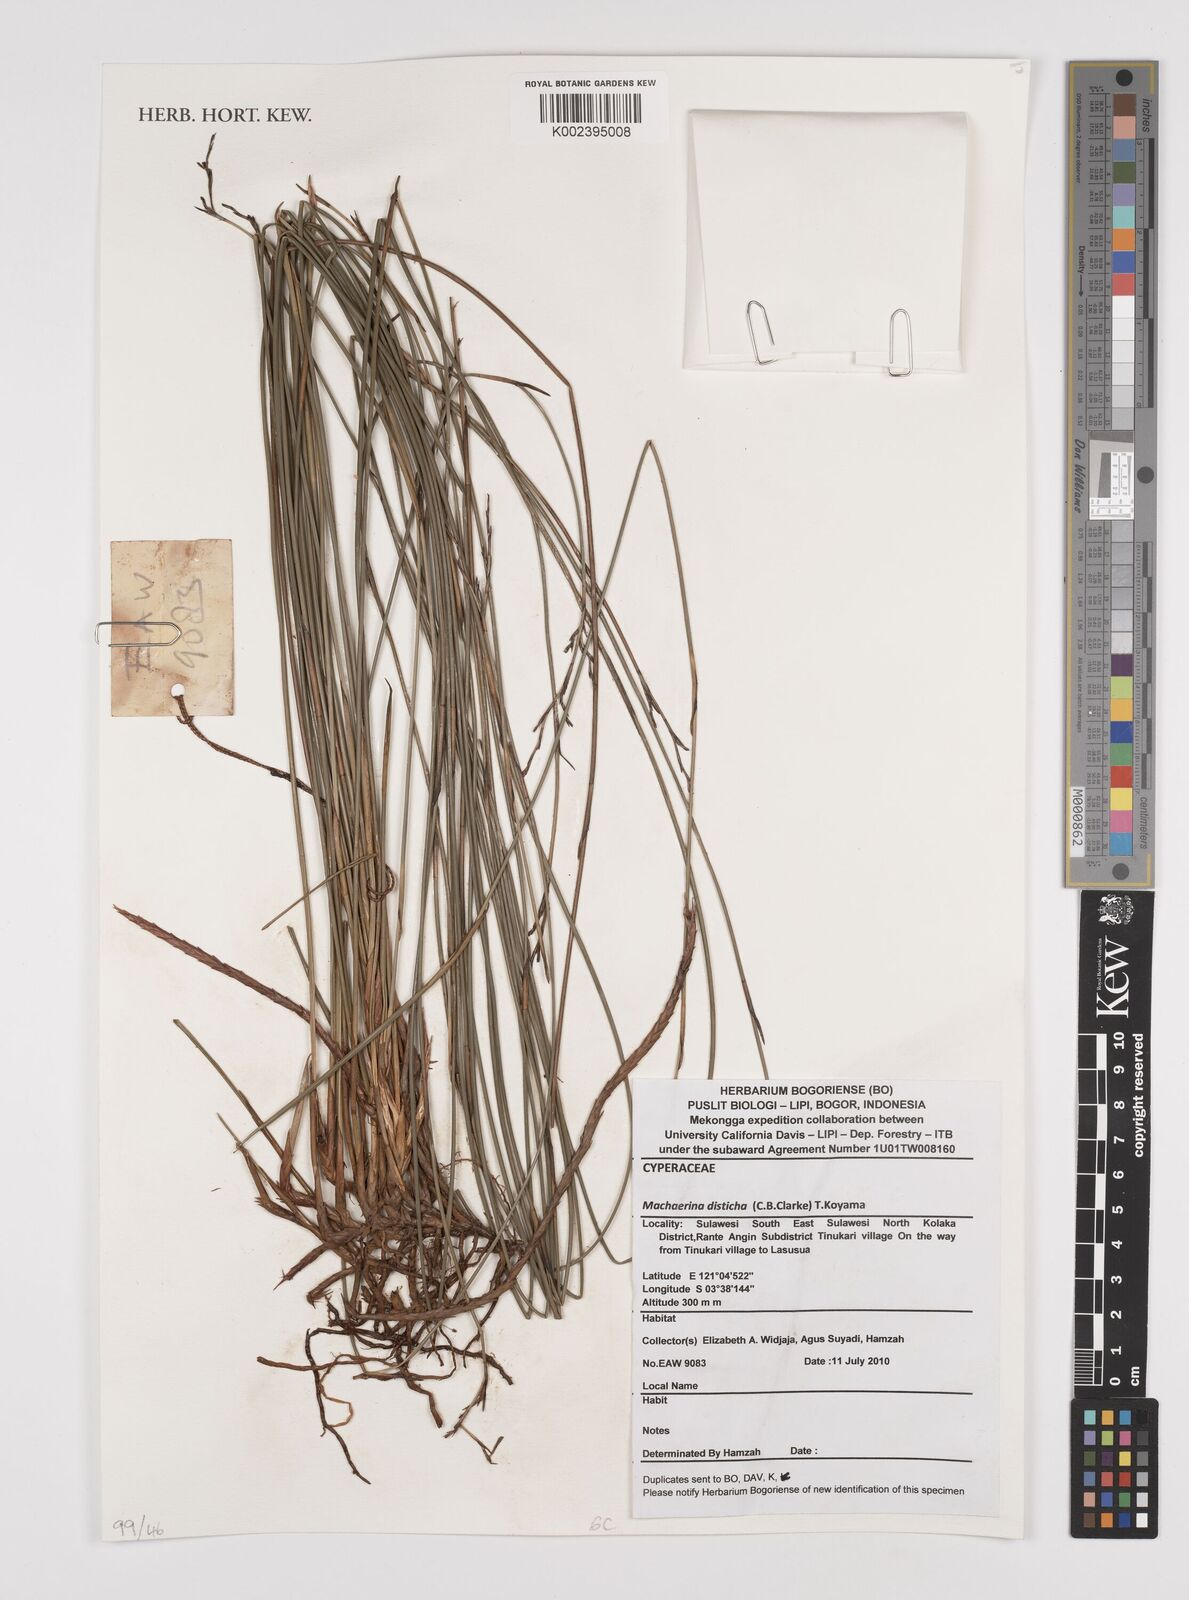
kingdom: Plantae
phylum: Tracheophyta
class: Liliopsida
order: Poales
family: Cyperaceae
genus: Machaerina
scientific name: Machaerina disticha
